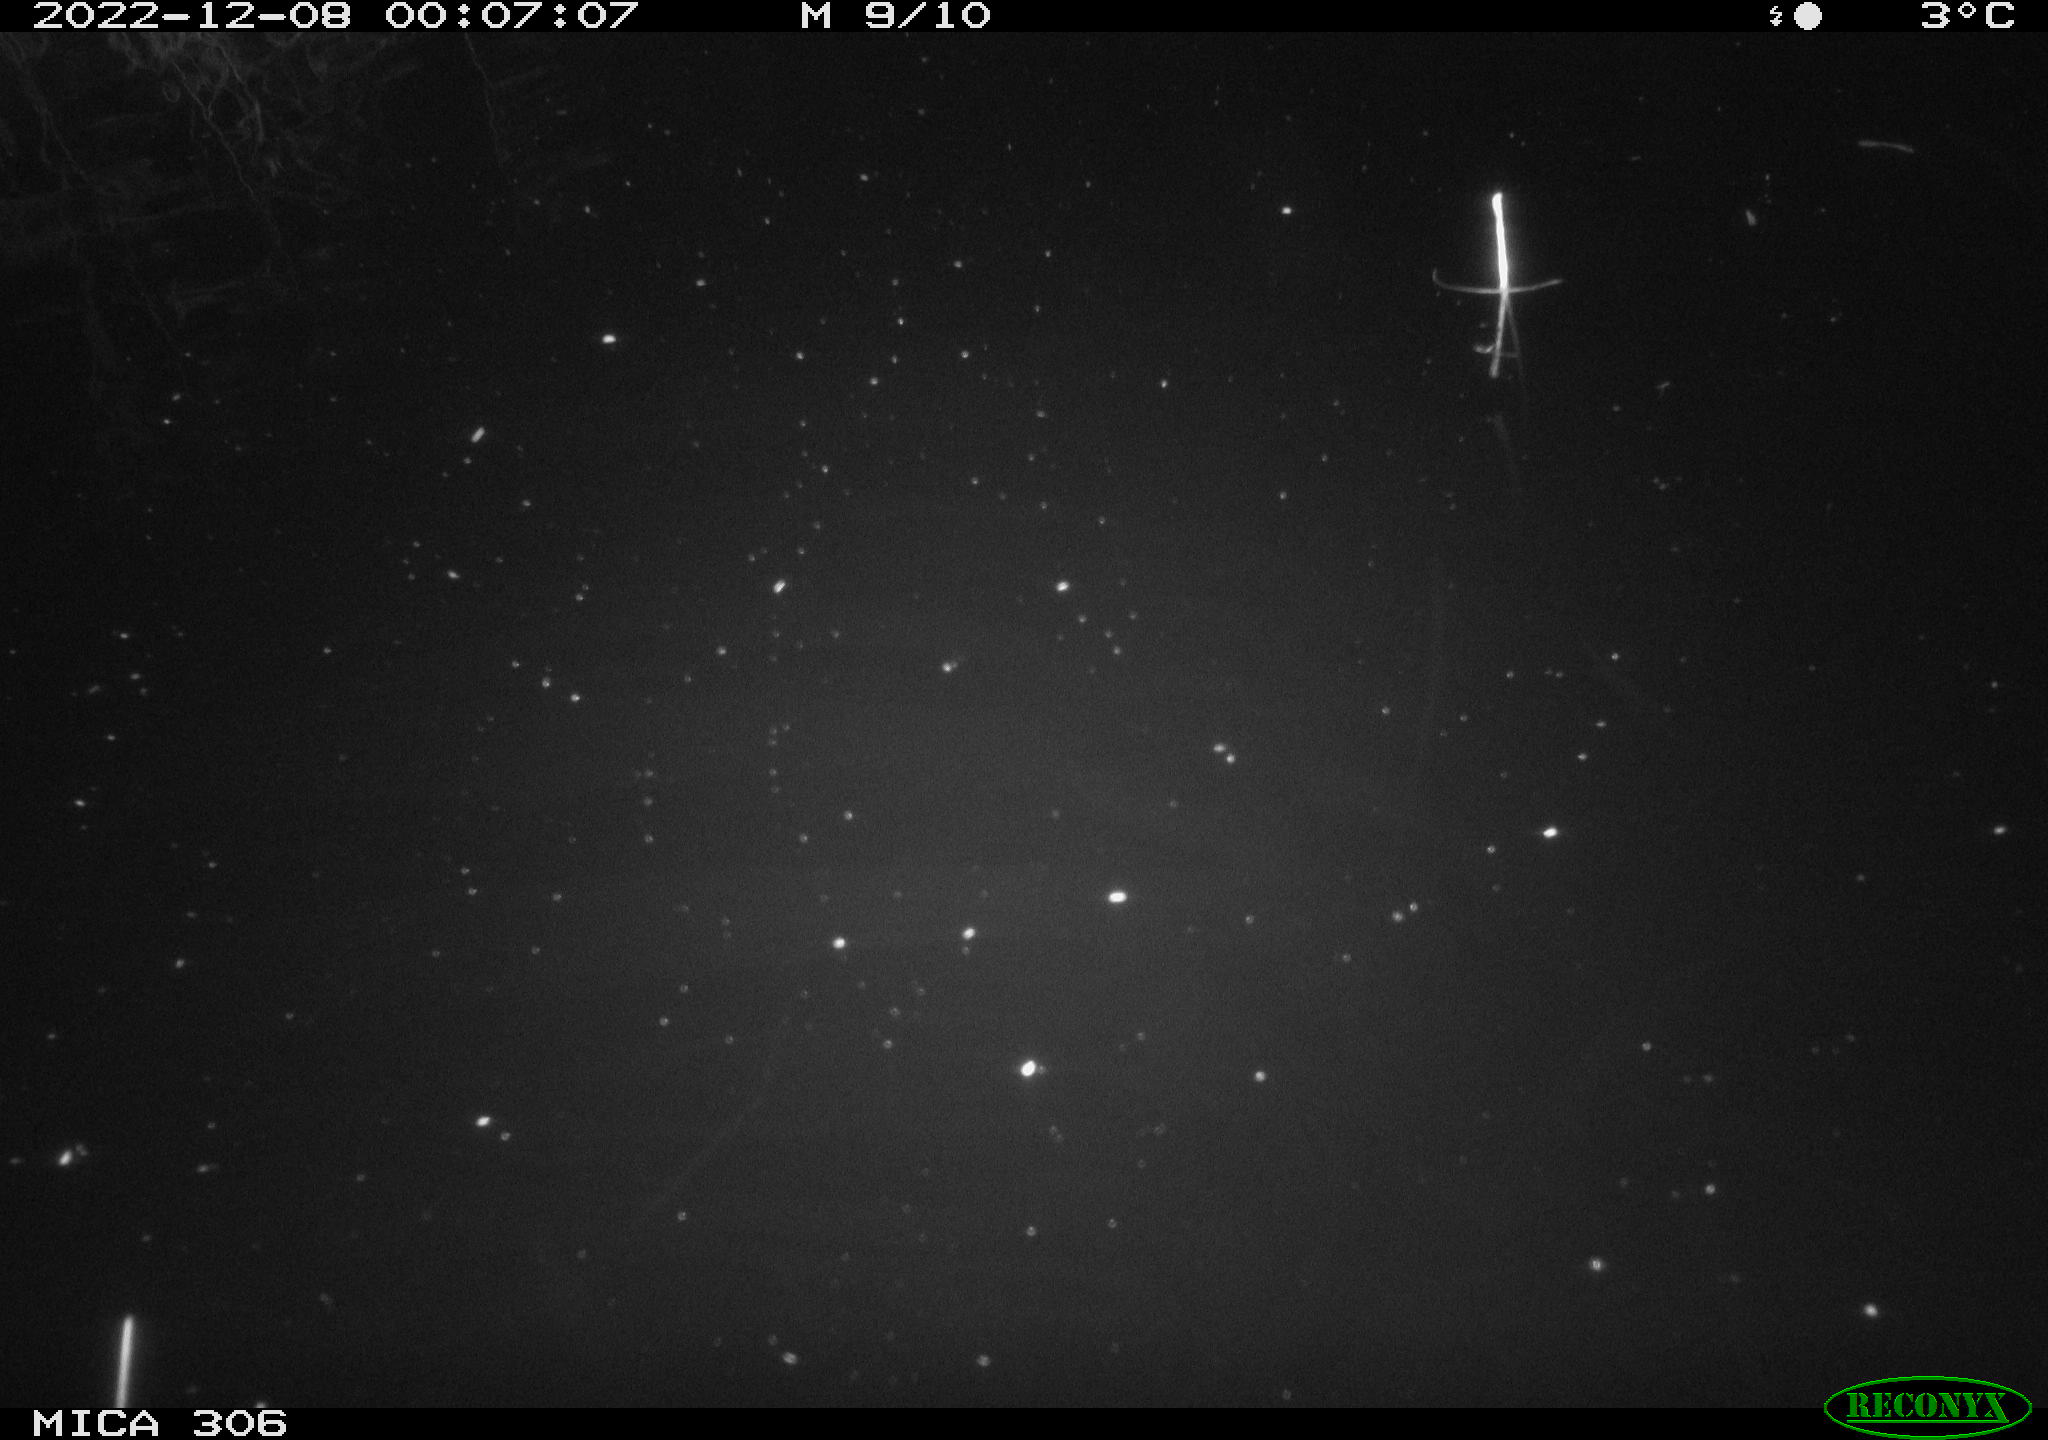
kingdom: Animalia
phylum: Chordata
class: Mammalia
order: Rodentia
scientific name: Rodentia
